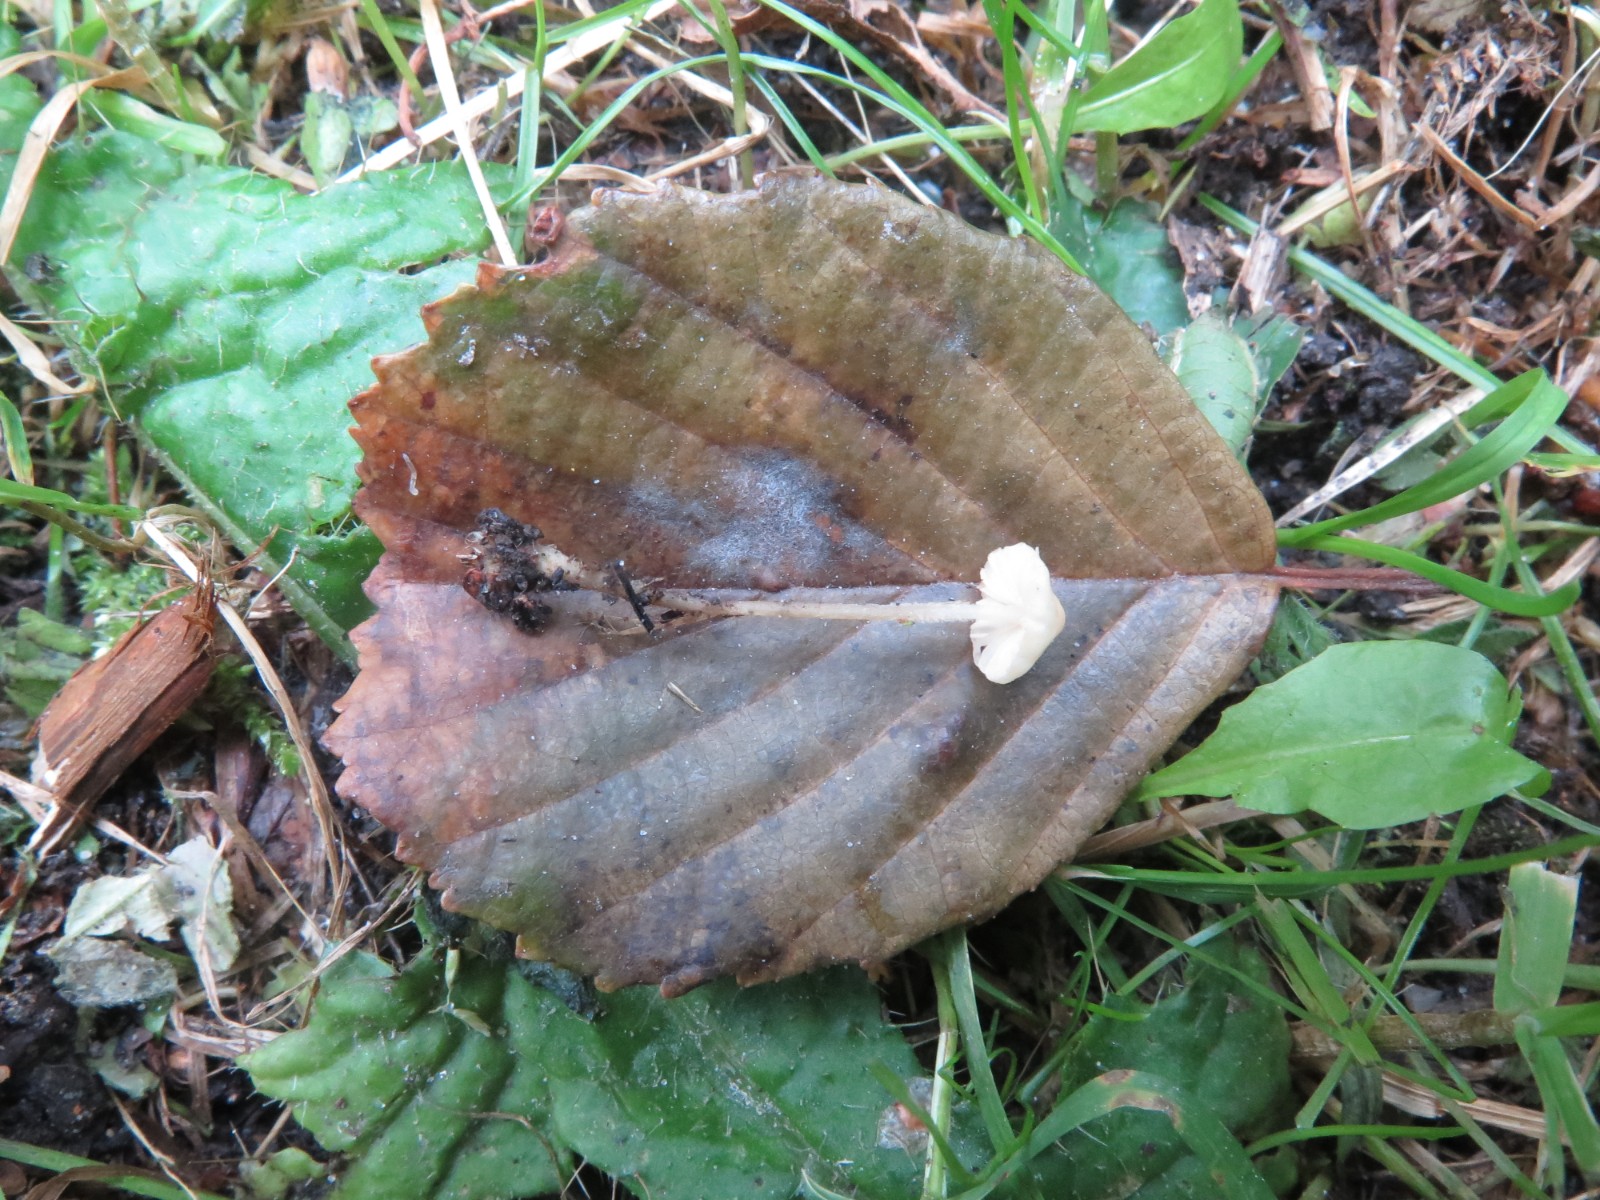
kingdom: Fungi
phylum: Basidiomycota
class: Agaricomycetes
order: Agaricales
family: Mycenaceae
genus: Atheniella
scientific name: Atheniella flavoalba
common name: gulhvid huesvamp
